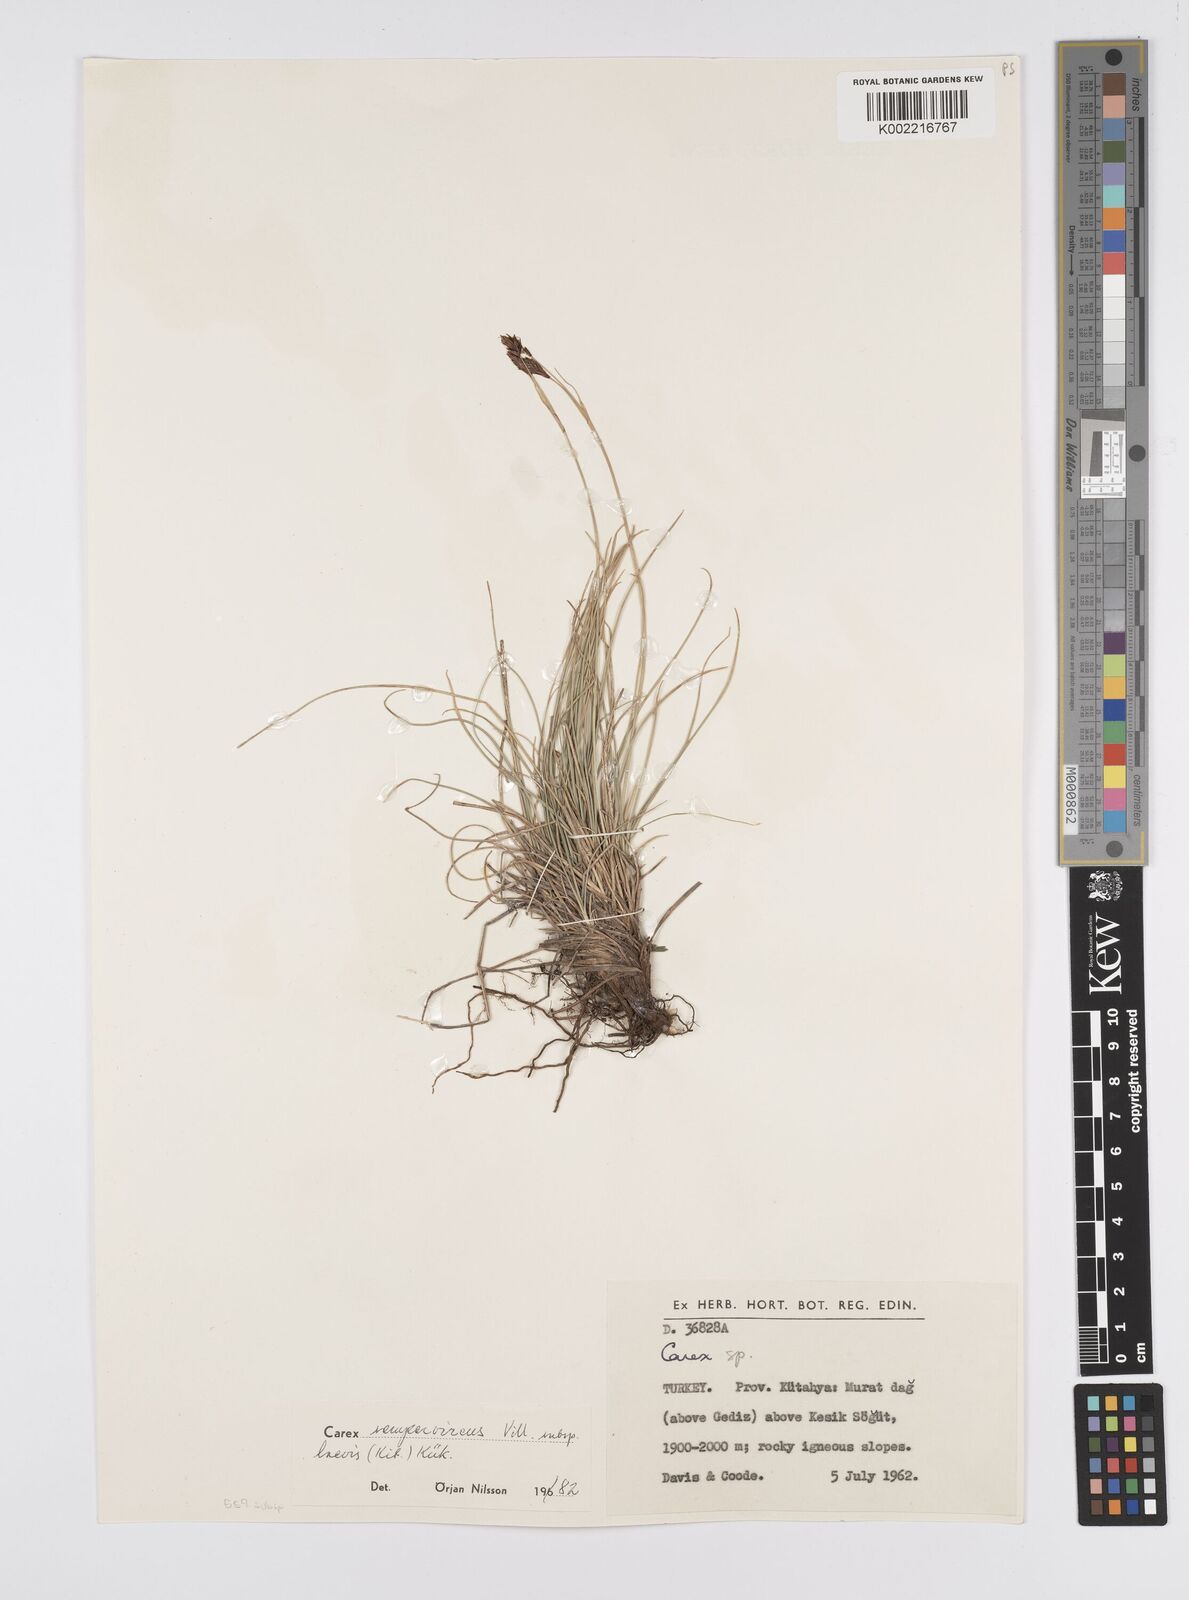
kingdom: Plantae
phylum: Tracheophyta
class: Liliopsida
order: Poales
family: Cyperaceae
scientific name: Cyperaceae
